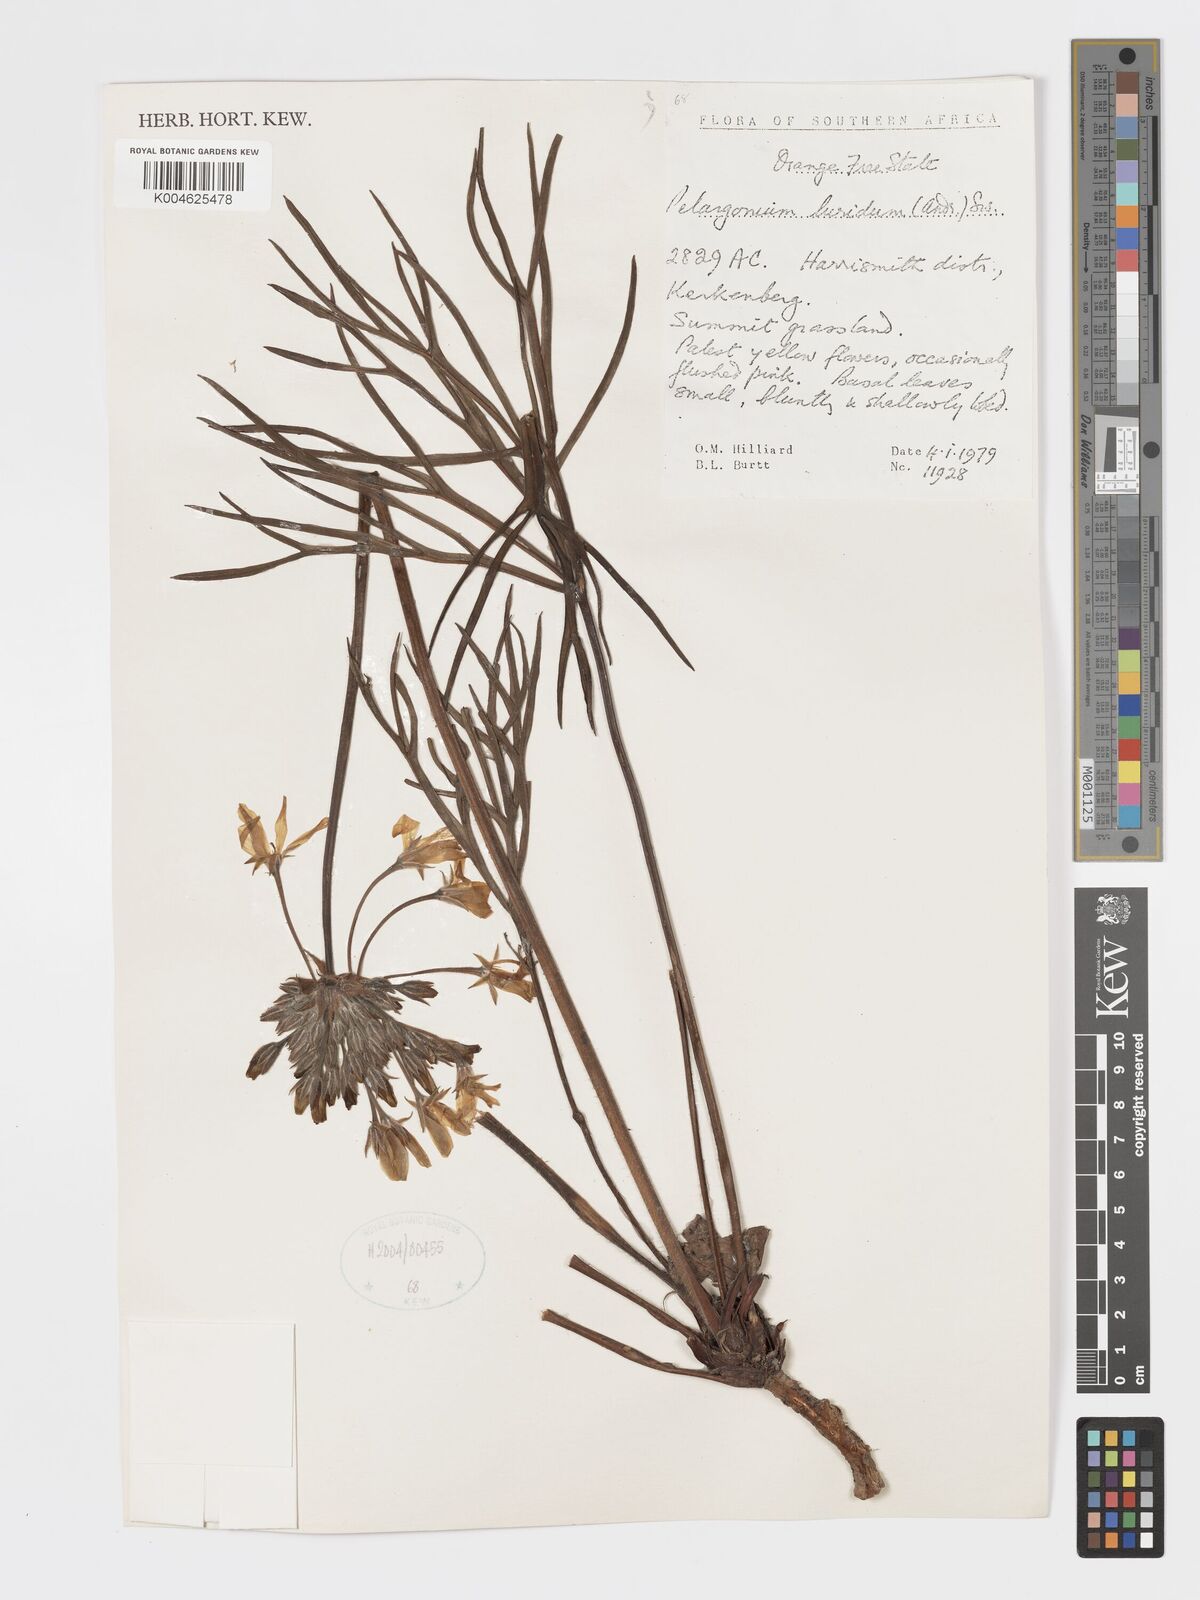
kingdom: Plantae
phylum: Tracheophyta
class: Magnoliopsida
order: Geraniales
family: Geraniaceae
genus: Pelargonium
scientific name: Pelargonium luridum
